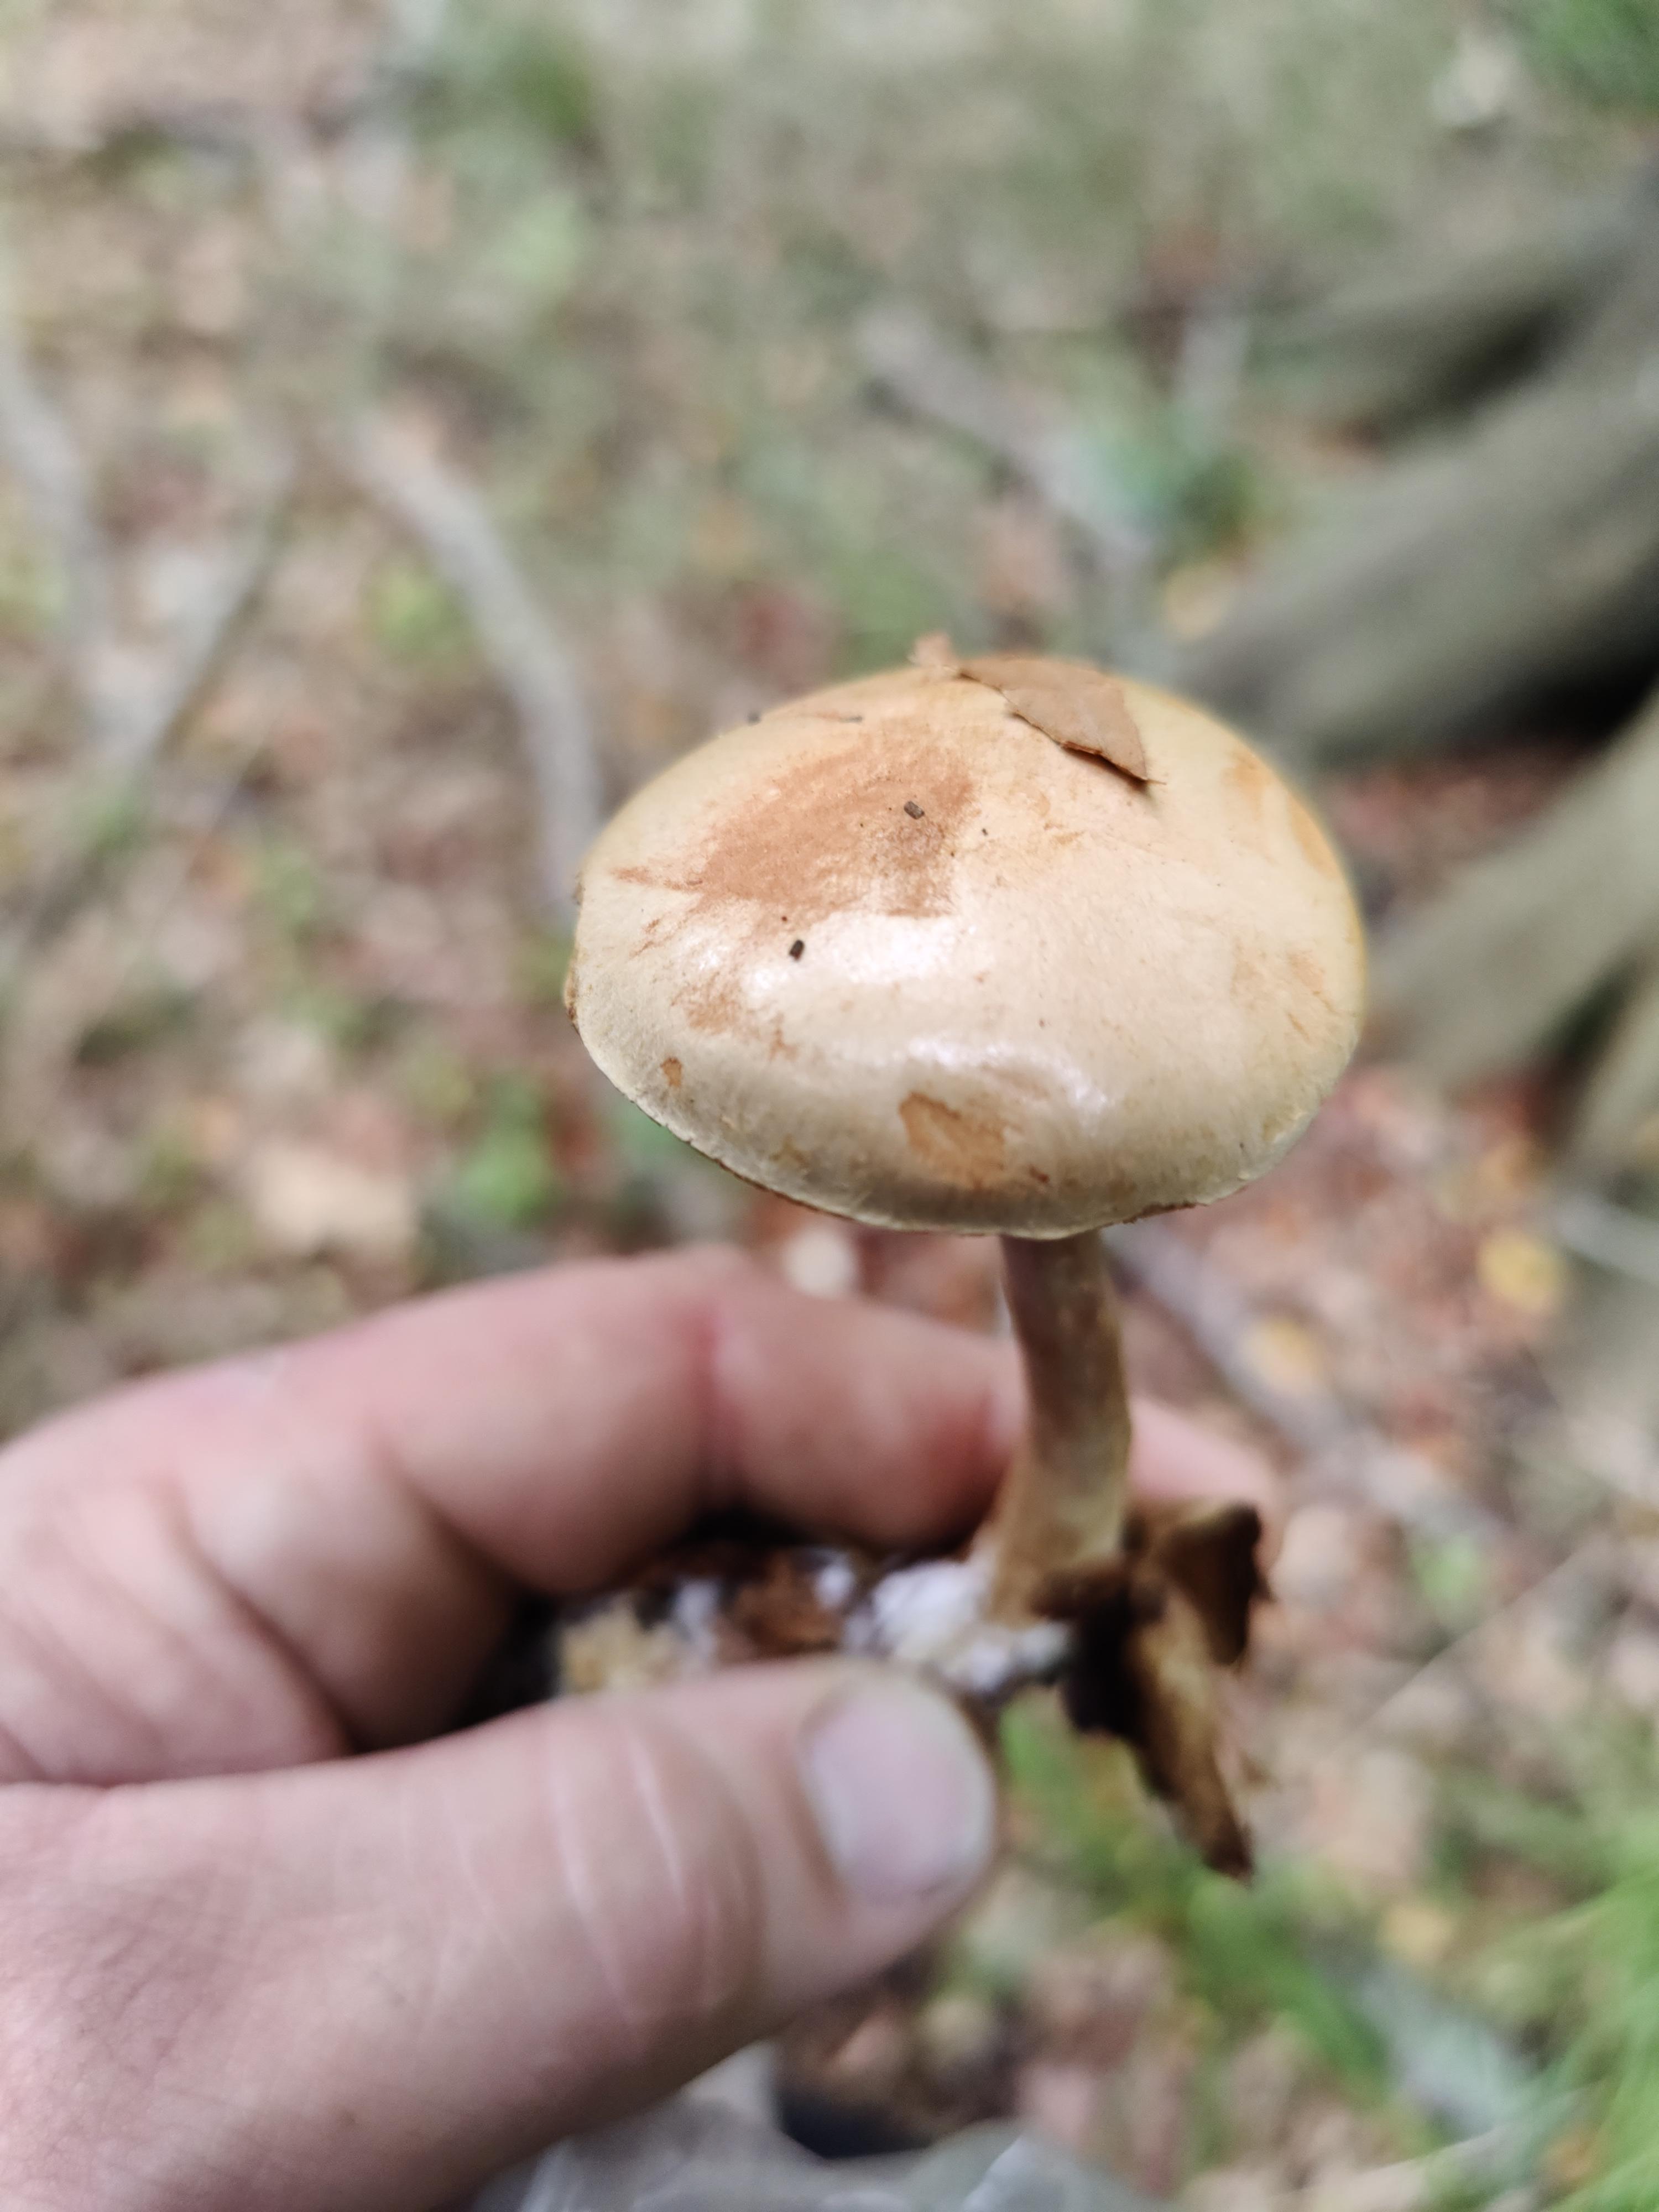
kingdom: Fungi
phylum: Basidiomycota
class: Agaricomycetes
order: Agaricales
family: Cortinariaceae
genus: Cortinarius
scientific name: Cortinarius
